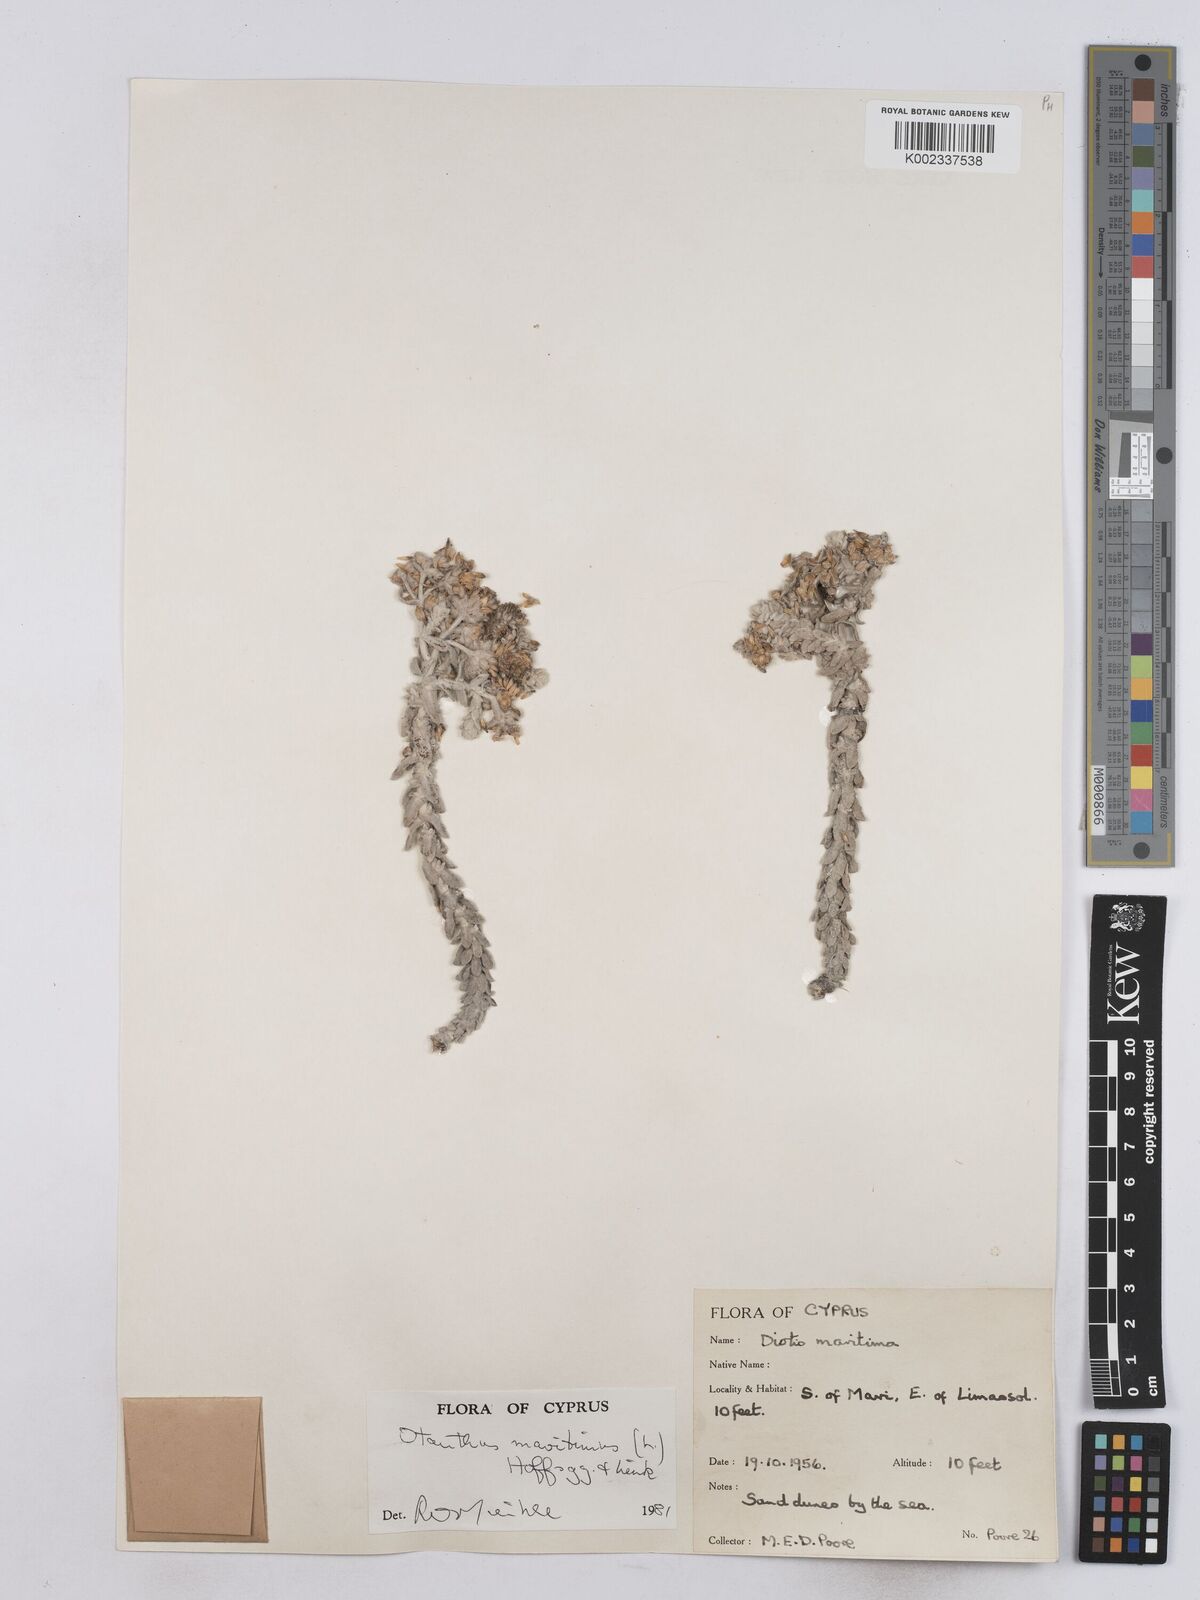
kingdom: Plantae
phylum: Tracheophyta
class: Magnoliopsida
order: Asterales
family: Asteraceae
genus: Achillea
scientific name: Achillea maritima
